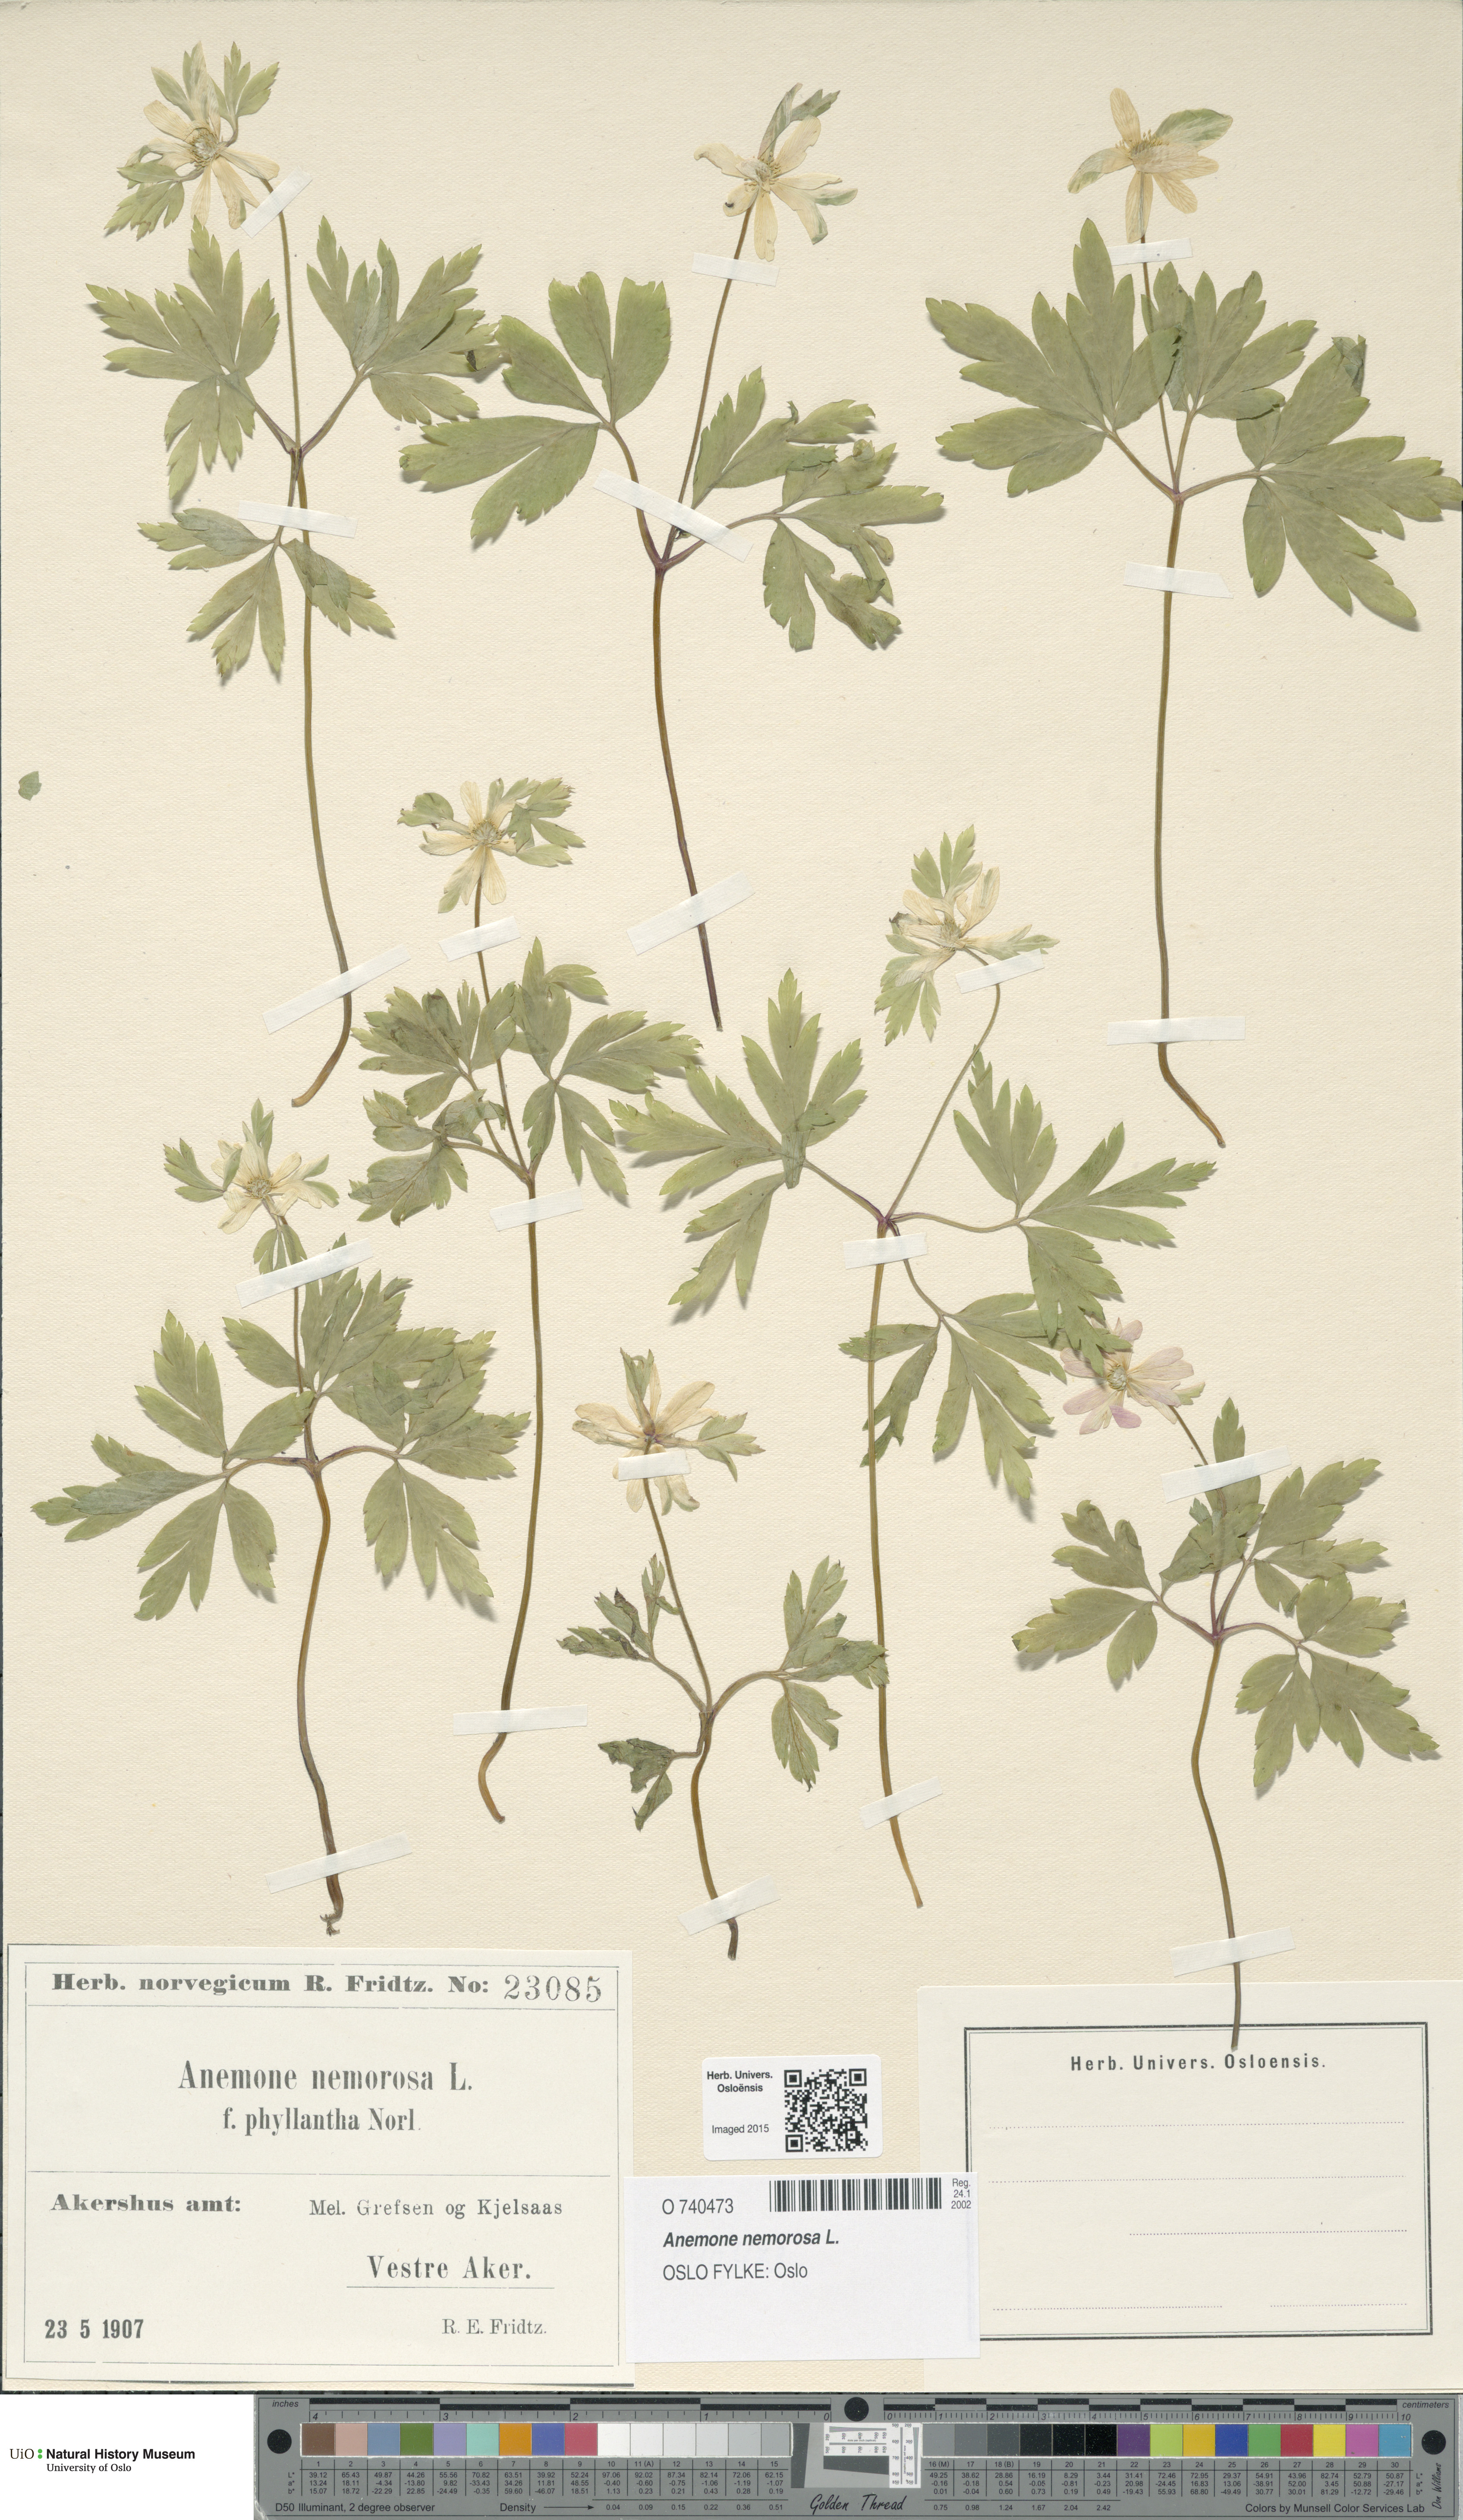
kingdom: Plantae
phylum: Tracheophyta
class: Magnoliopsida
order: Ranunculales
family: Ranunculaceae
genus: Anemone
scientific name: Anemone nemorosa
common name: Wood anemone
